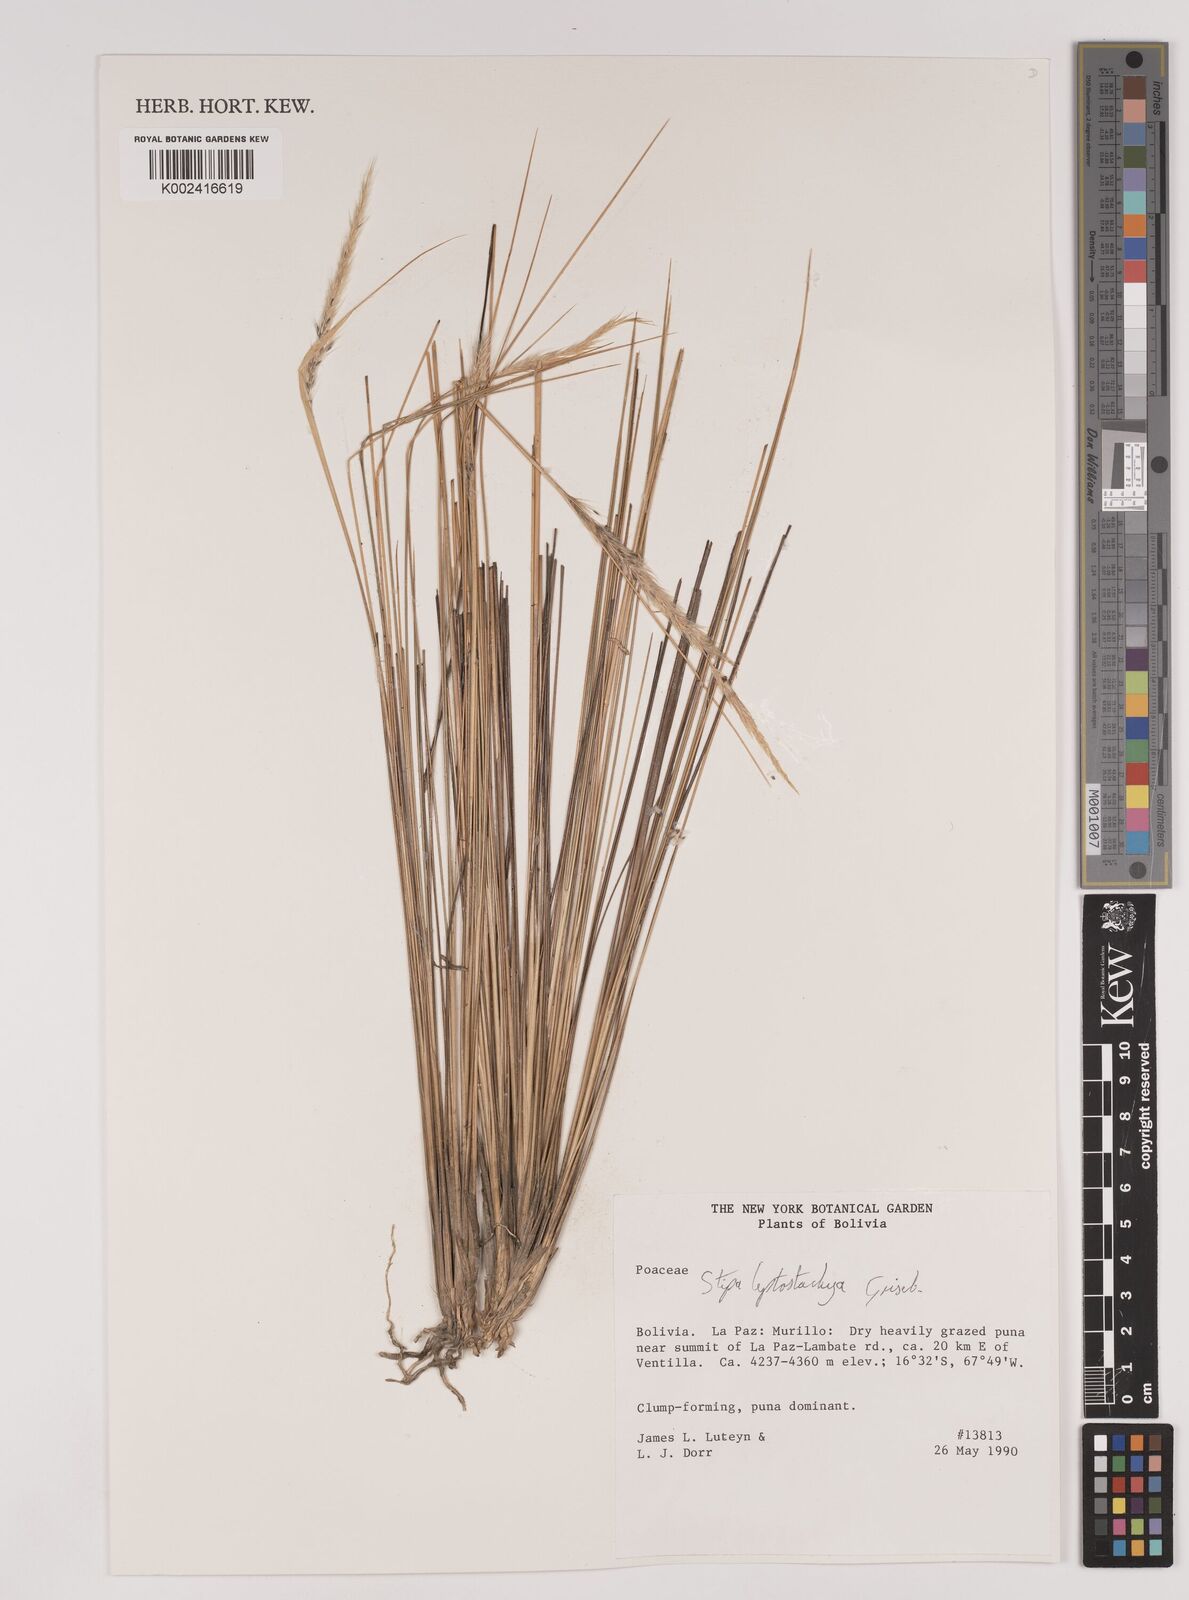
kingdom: Plantae
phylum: Tracheophyta
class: Liliopsida
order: Poales
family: Poaceae
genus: Jarava
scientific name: Jarava leptostachya
